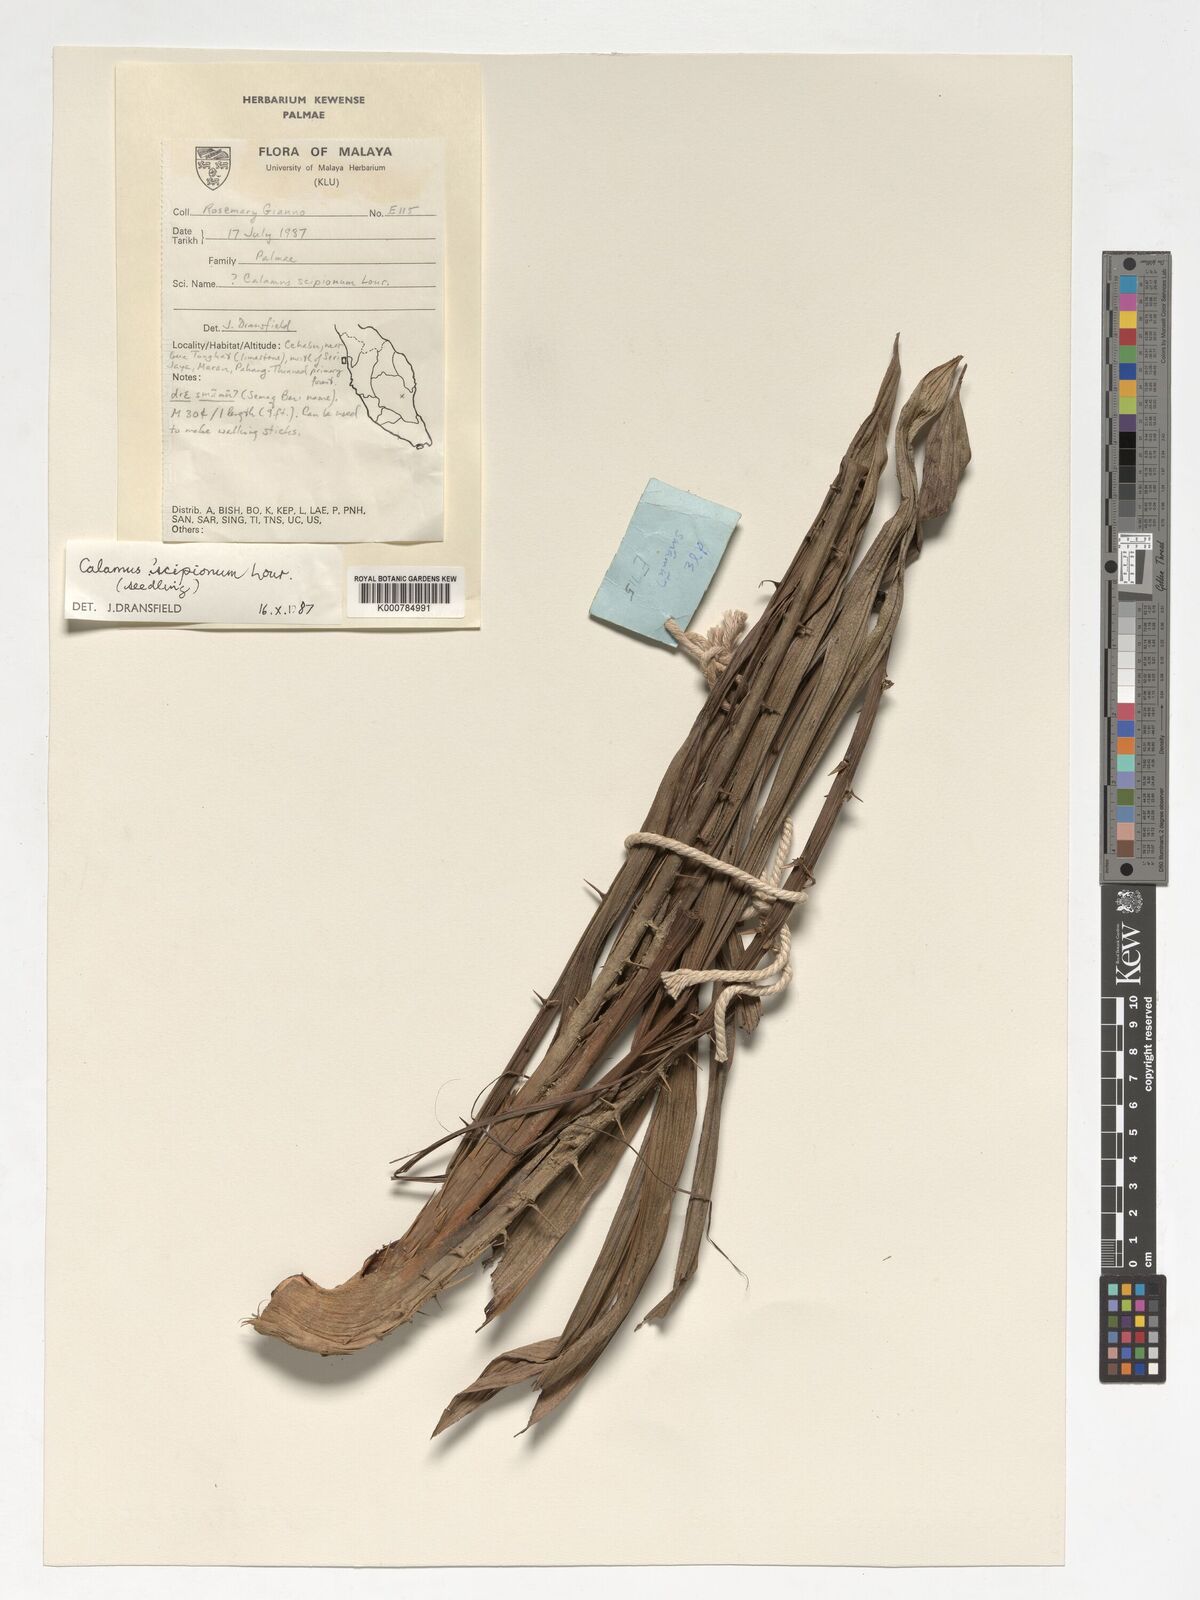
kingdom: Plantae
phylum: Tracheophyta
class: Liliopsida
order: Arecales
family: Arecaceae
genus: Calamus
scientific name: Calamus scipionum
